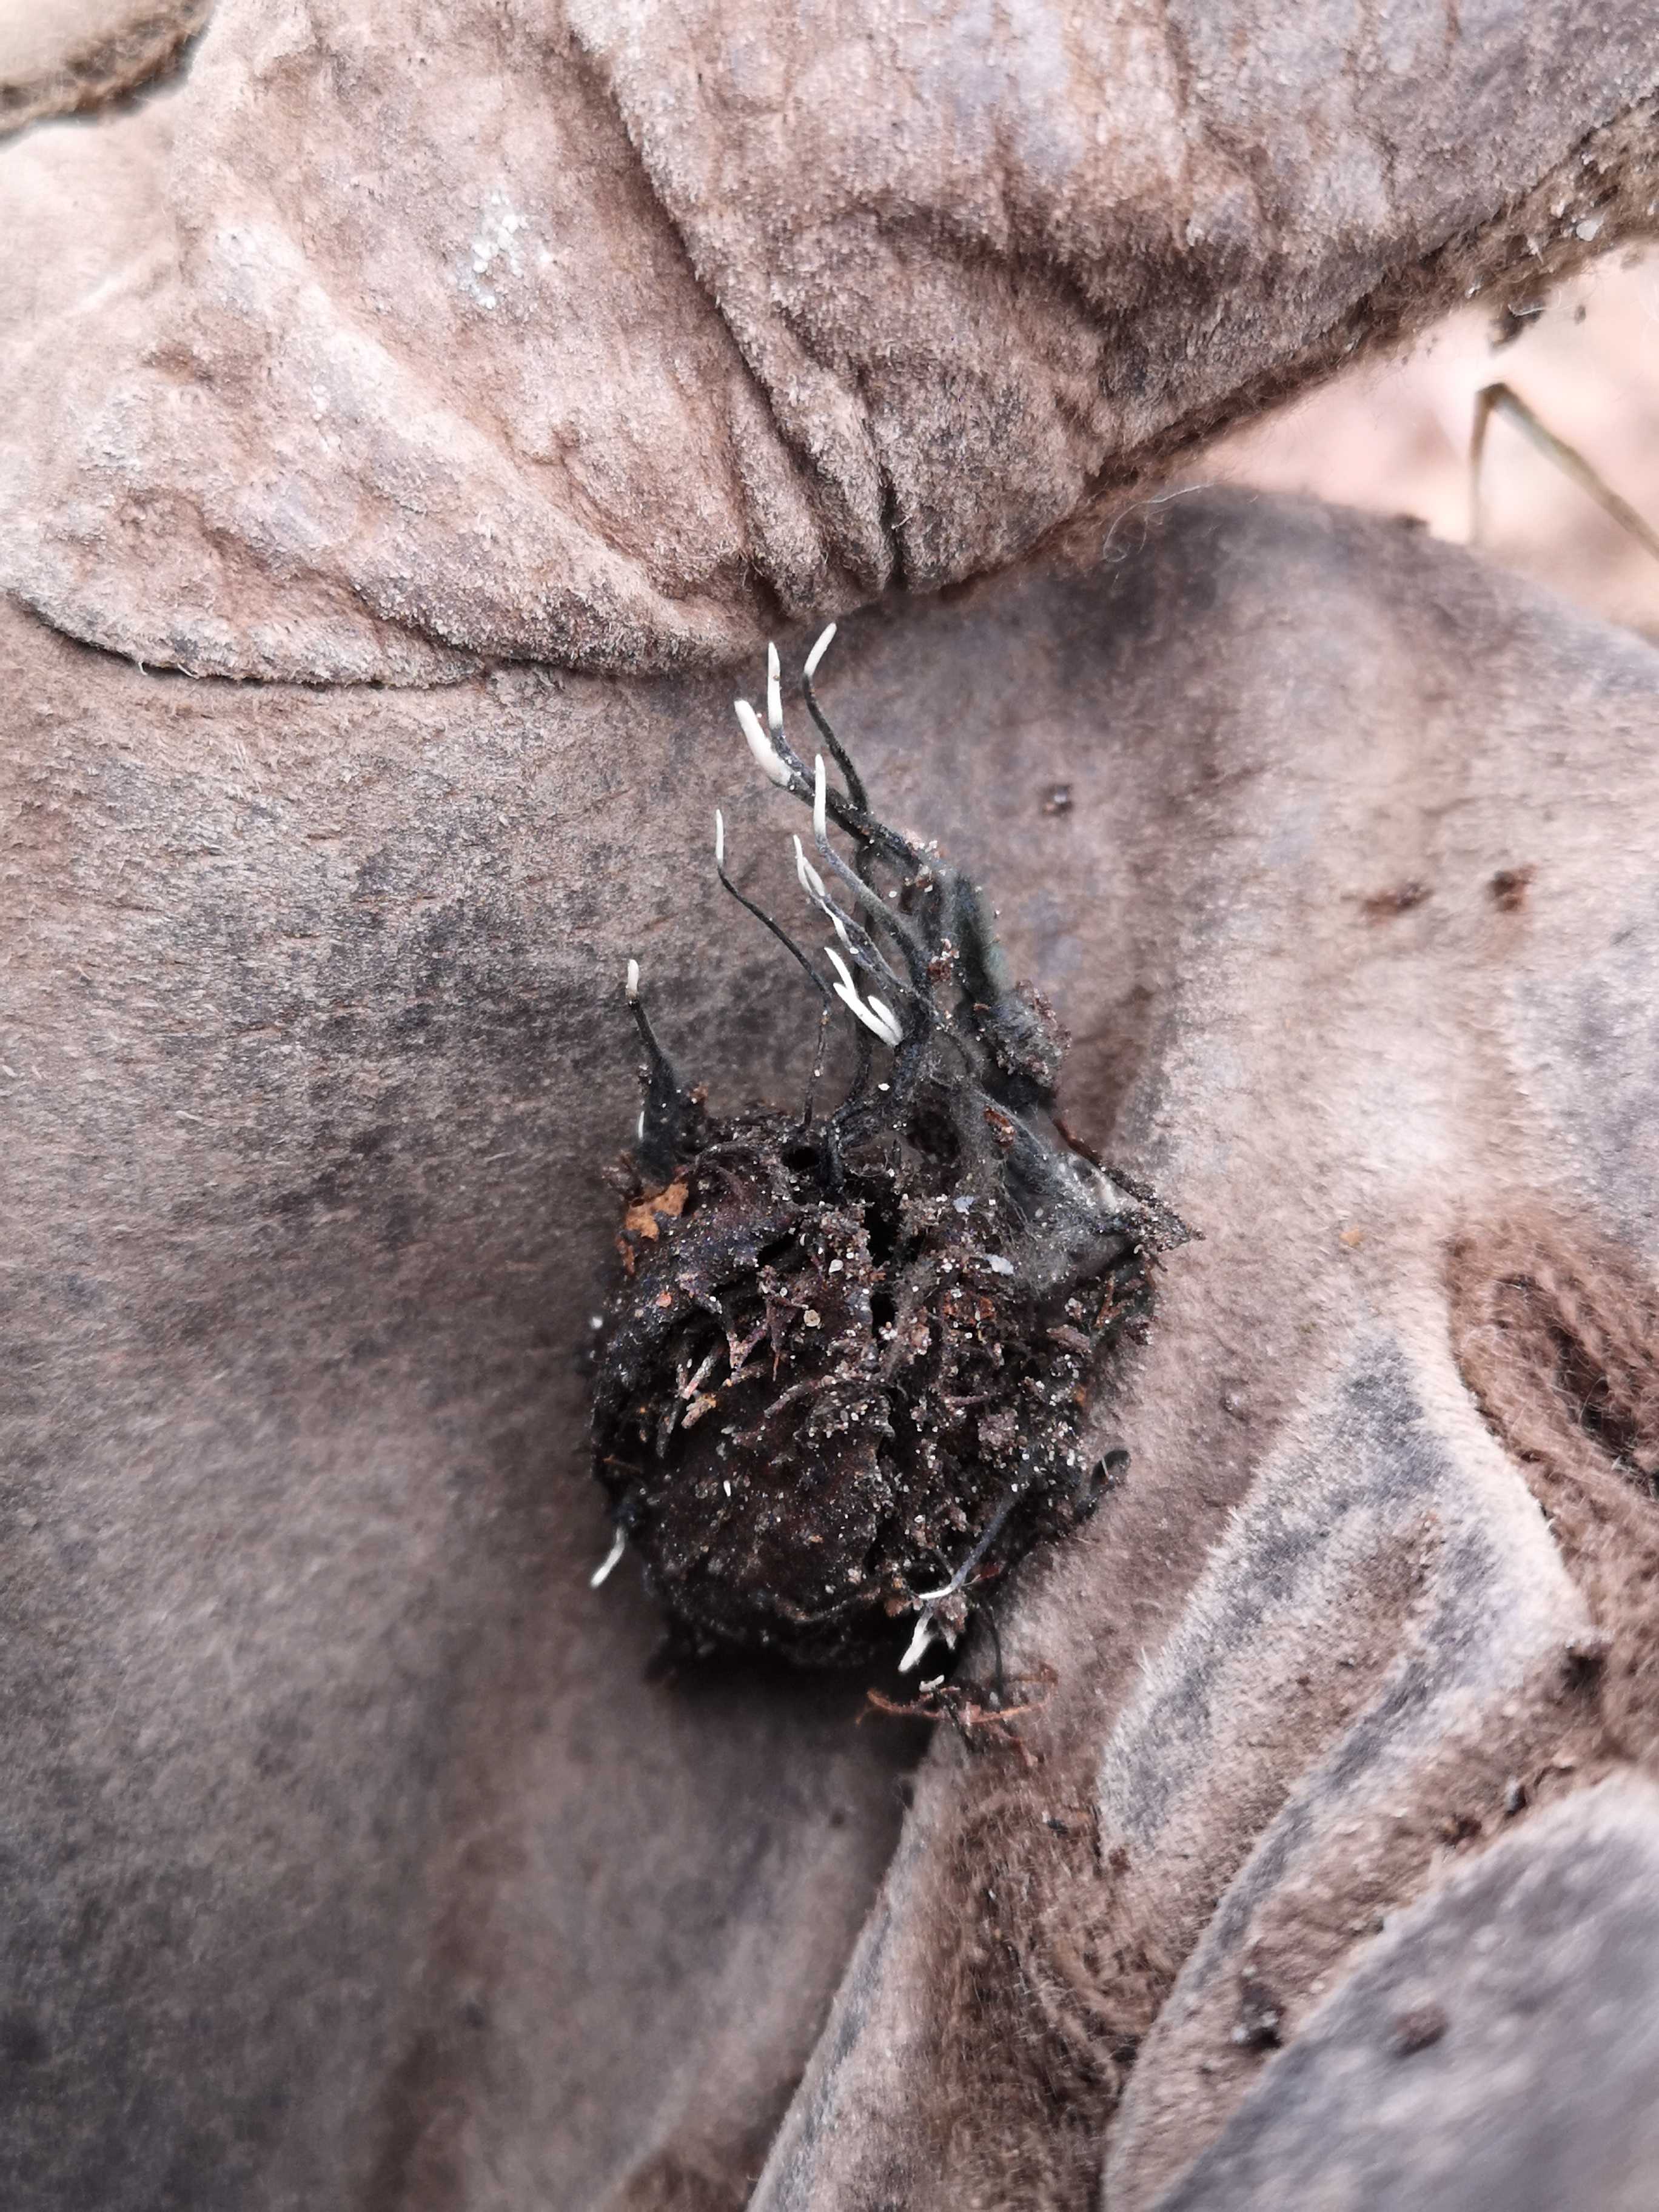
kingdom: Fungi
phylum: Ascomycota
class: Sordariomycetes
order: Xylariales
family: Xylariaceae
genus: Xylaria
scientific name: Xylaria carpophila
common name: bogskål-stødsvamp
